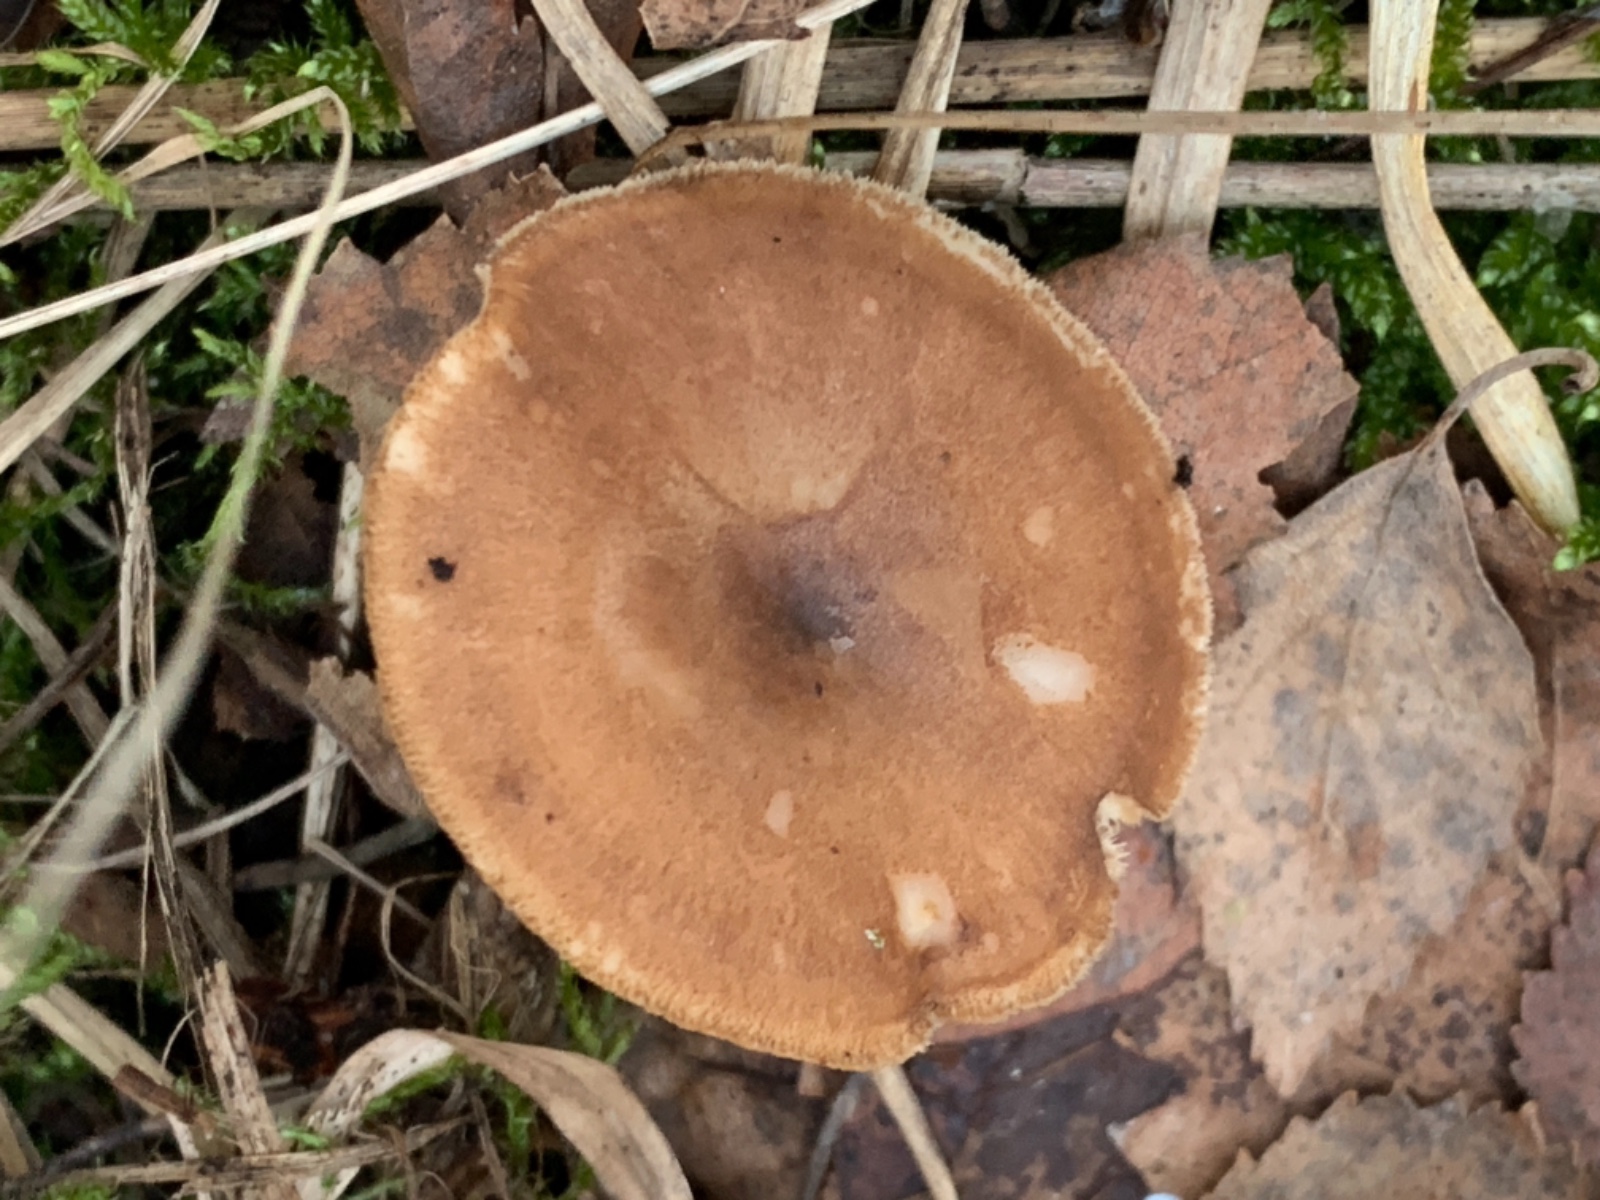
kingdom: Fungi
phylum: Basidiomycota
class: Agaricomycetes
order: Polyporales
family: Polyporaceae
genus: Lentinus
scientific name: Lentinus brumalis
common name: vinter-stilkporesvamp
